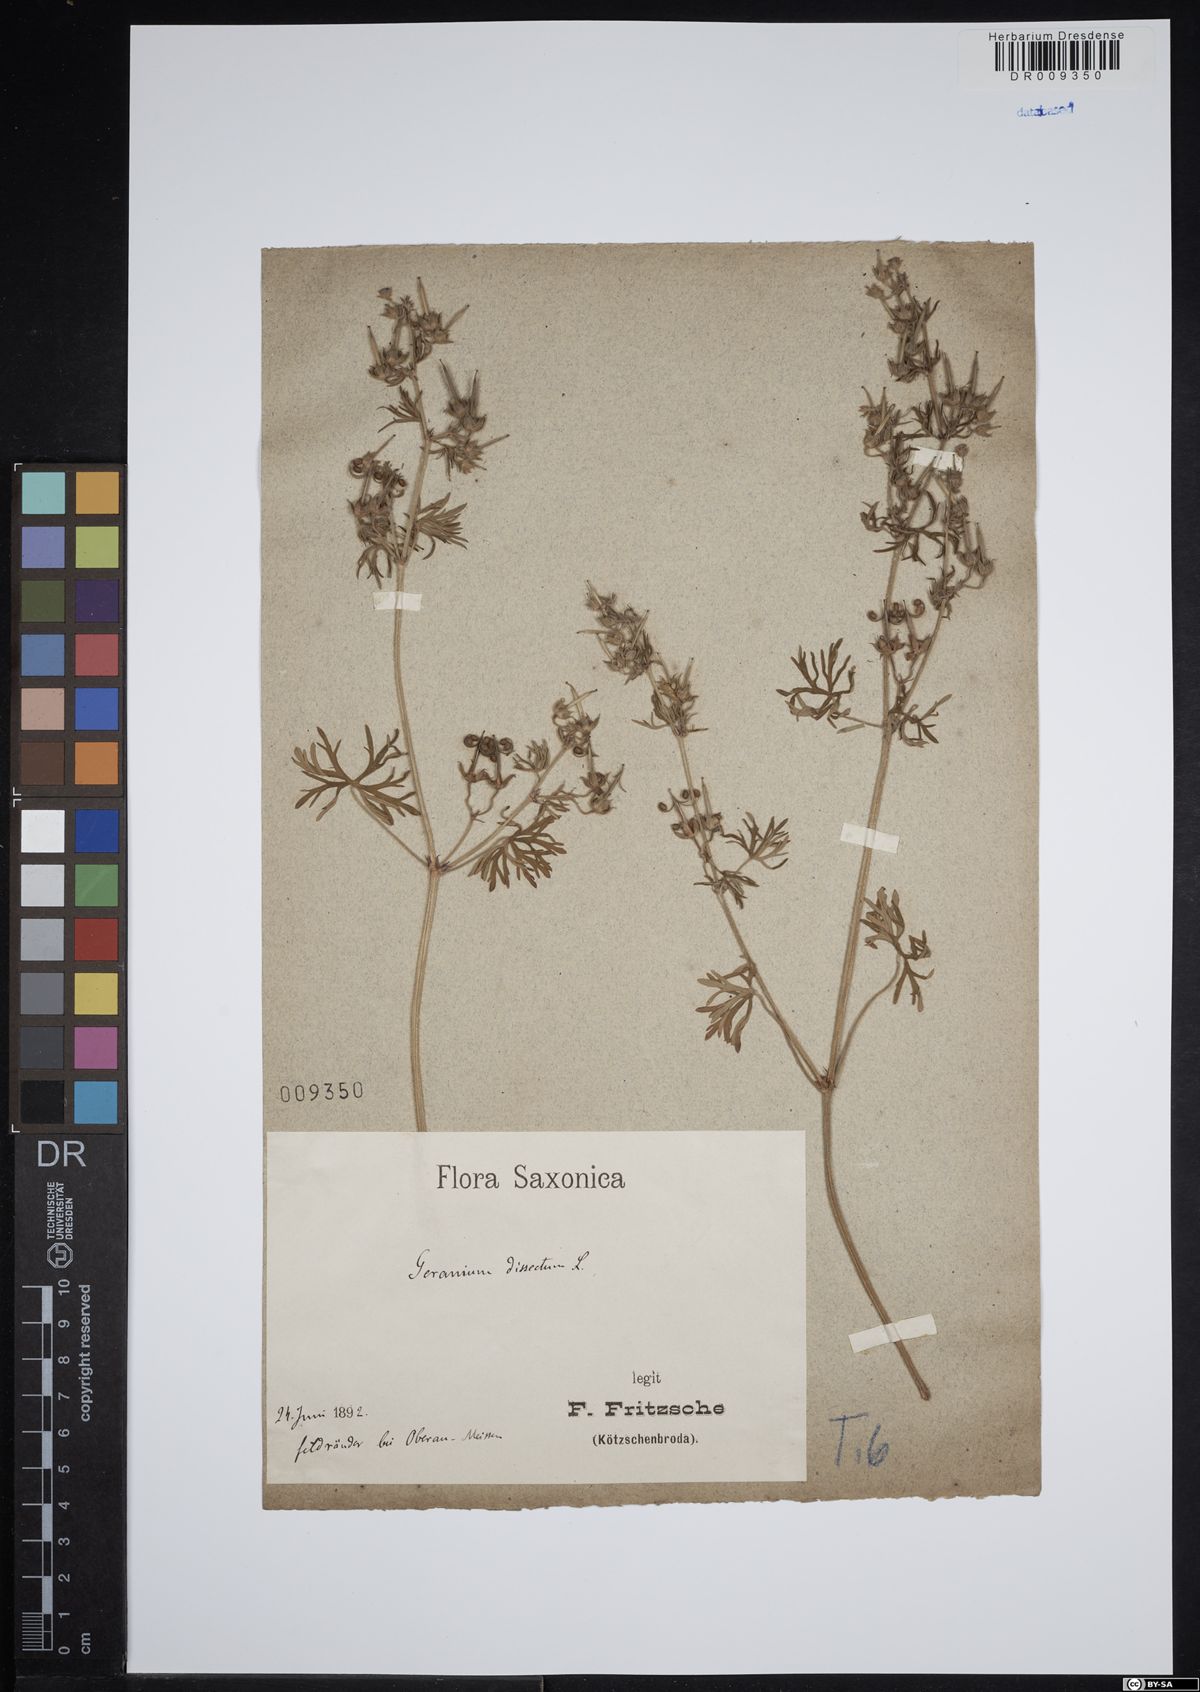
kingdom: Plantae
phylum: Tracheophyta
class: Magnoliopsida
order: Geraniales
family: Geraniaceae
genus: Geranium
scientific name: Geranium dissectum
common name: Cut-leaved crane's-bill
